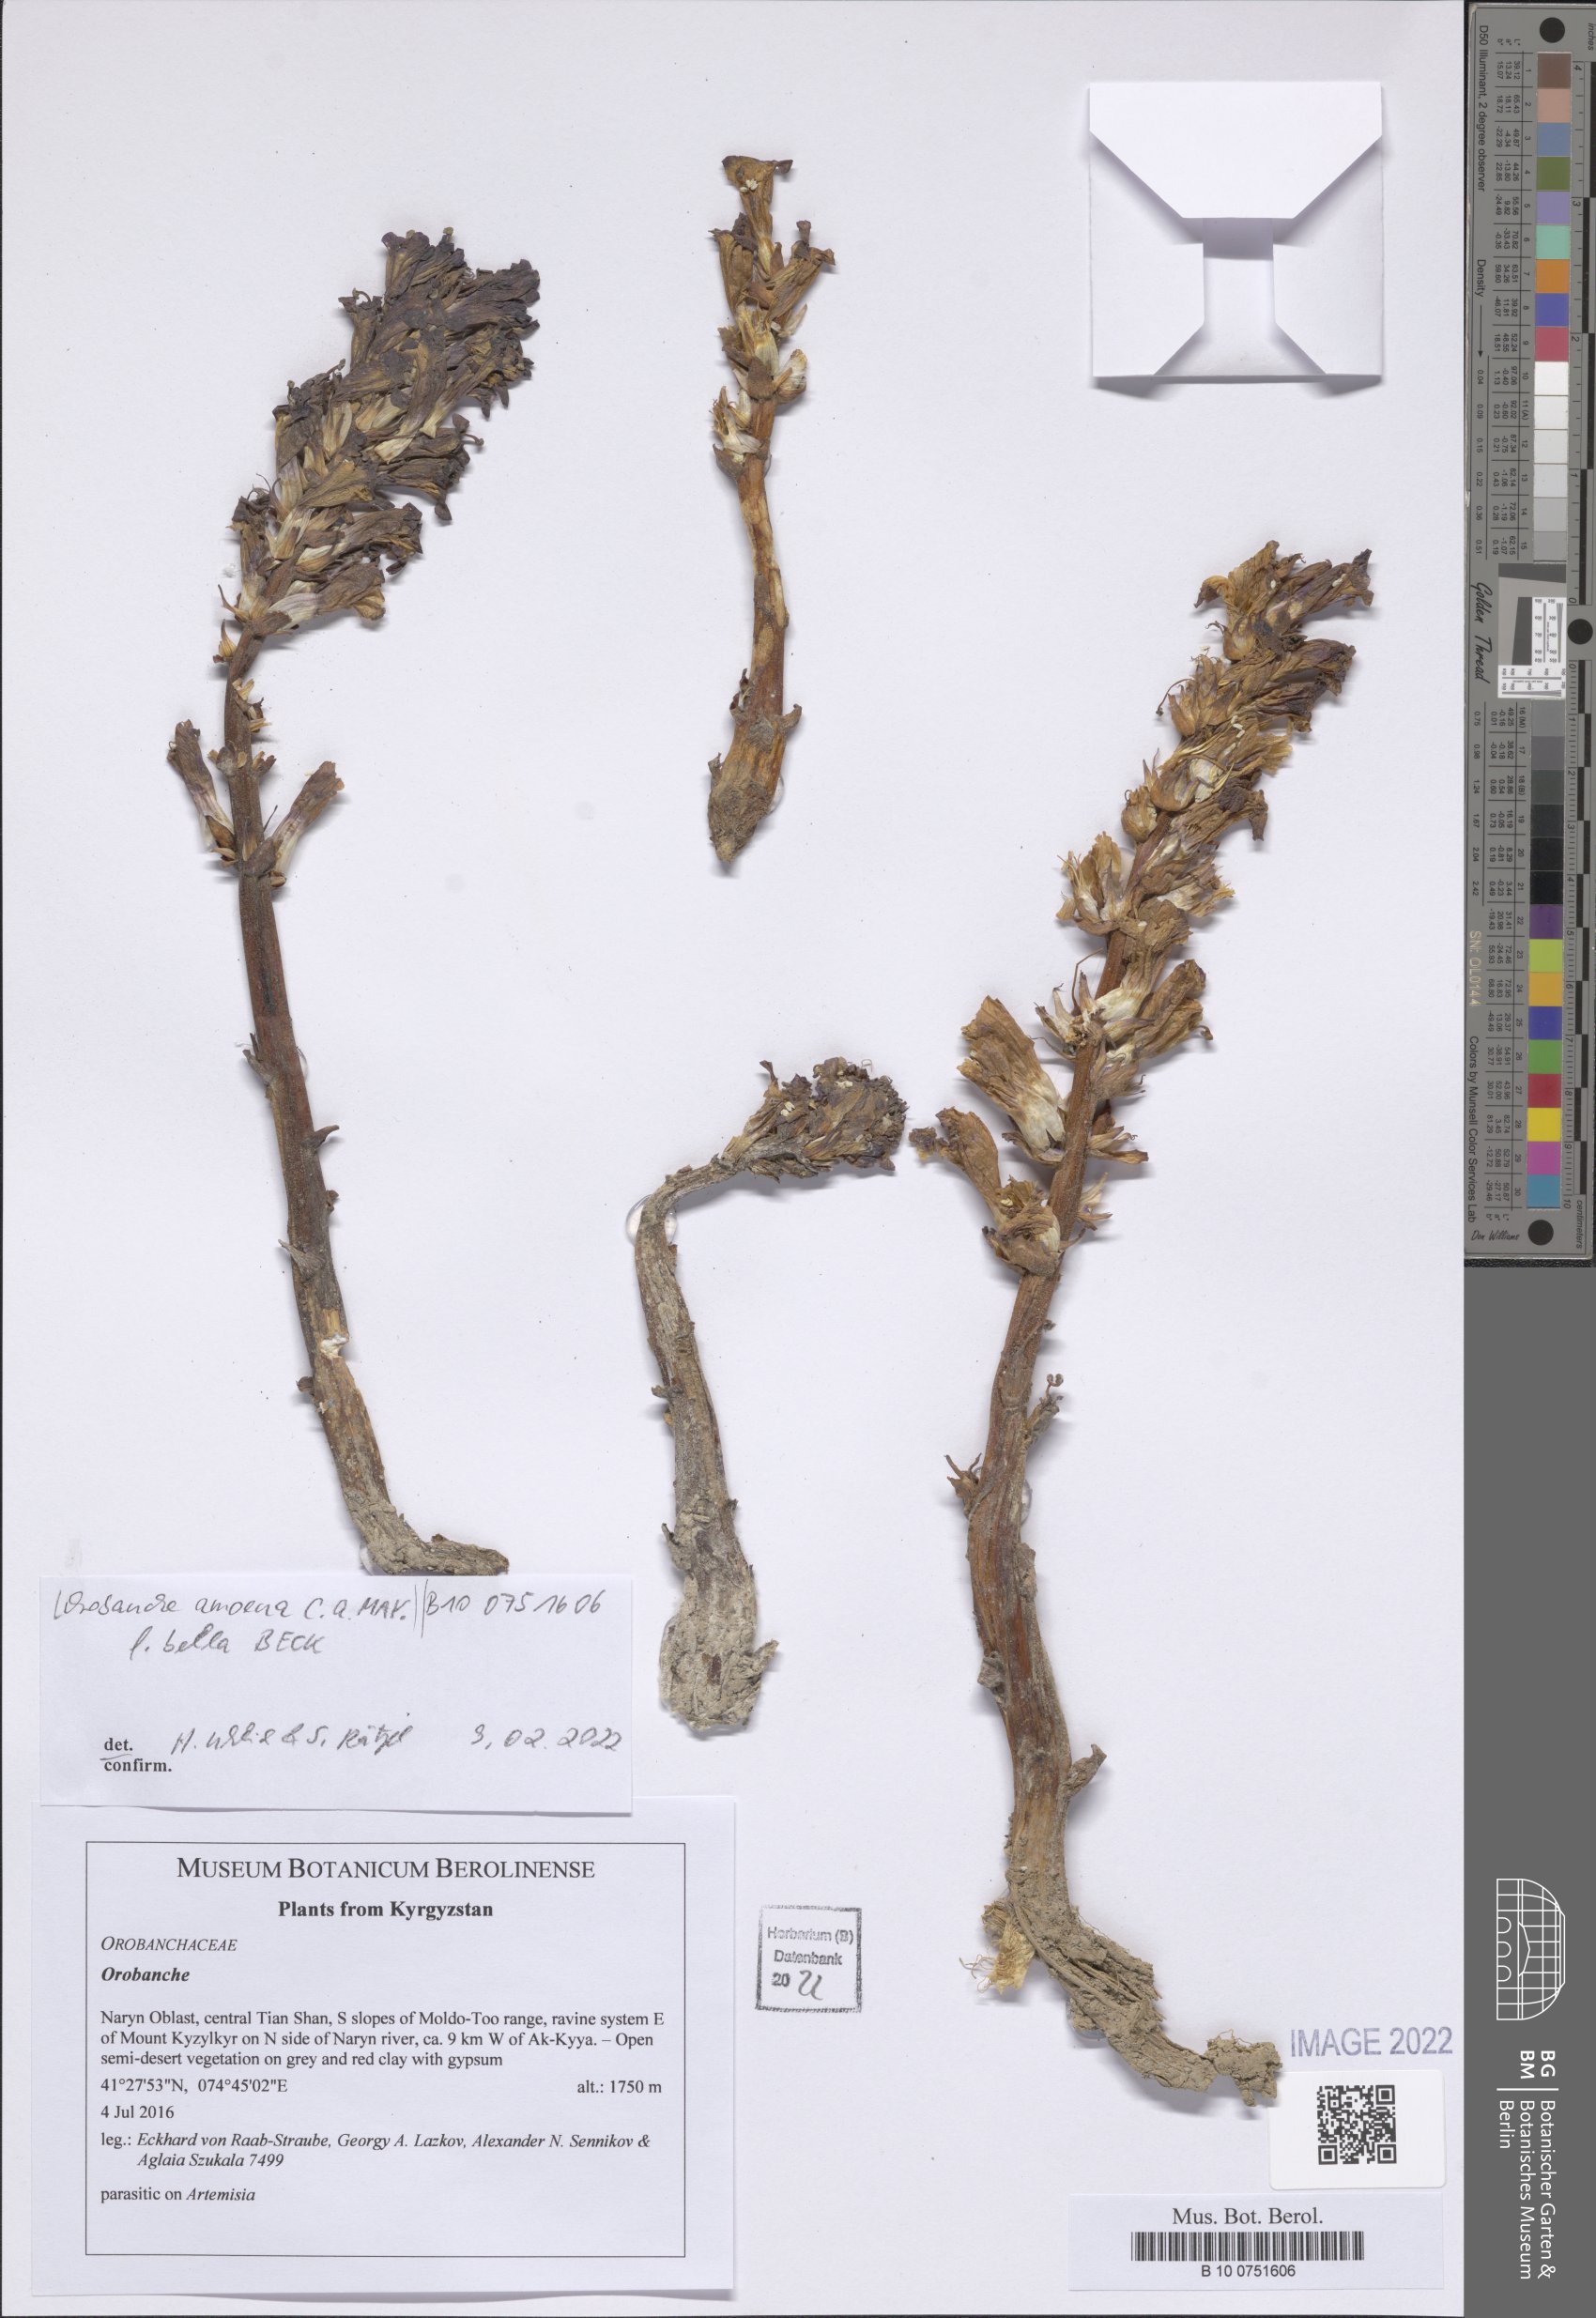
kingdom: Plantae
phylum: Tracheophyta
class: Magnoliopsida
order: Lamiales
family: Orobanchaceae
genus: Orobanche
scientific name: Orobanche amoena
